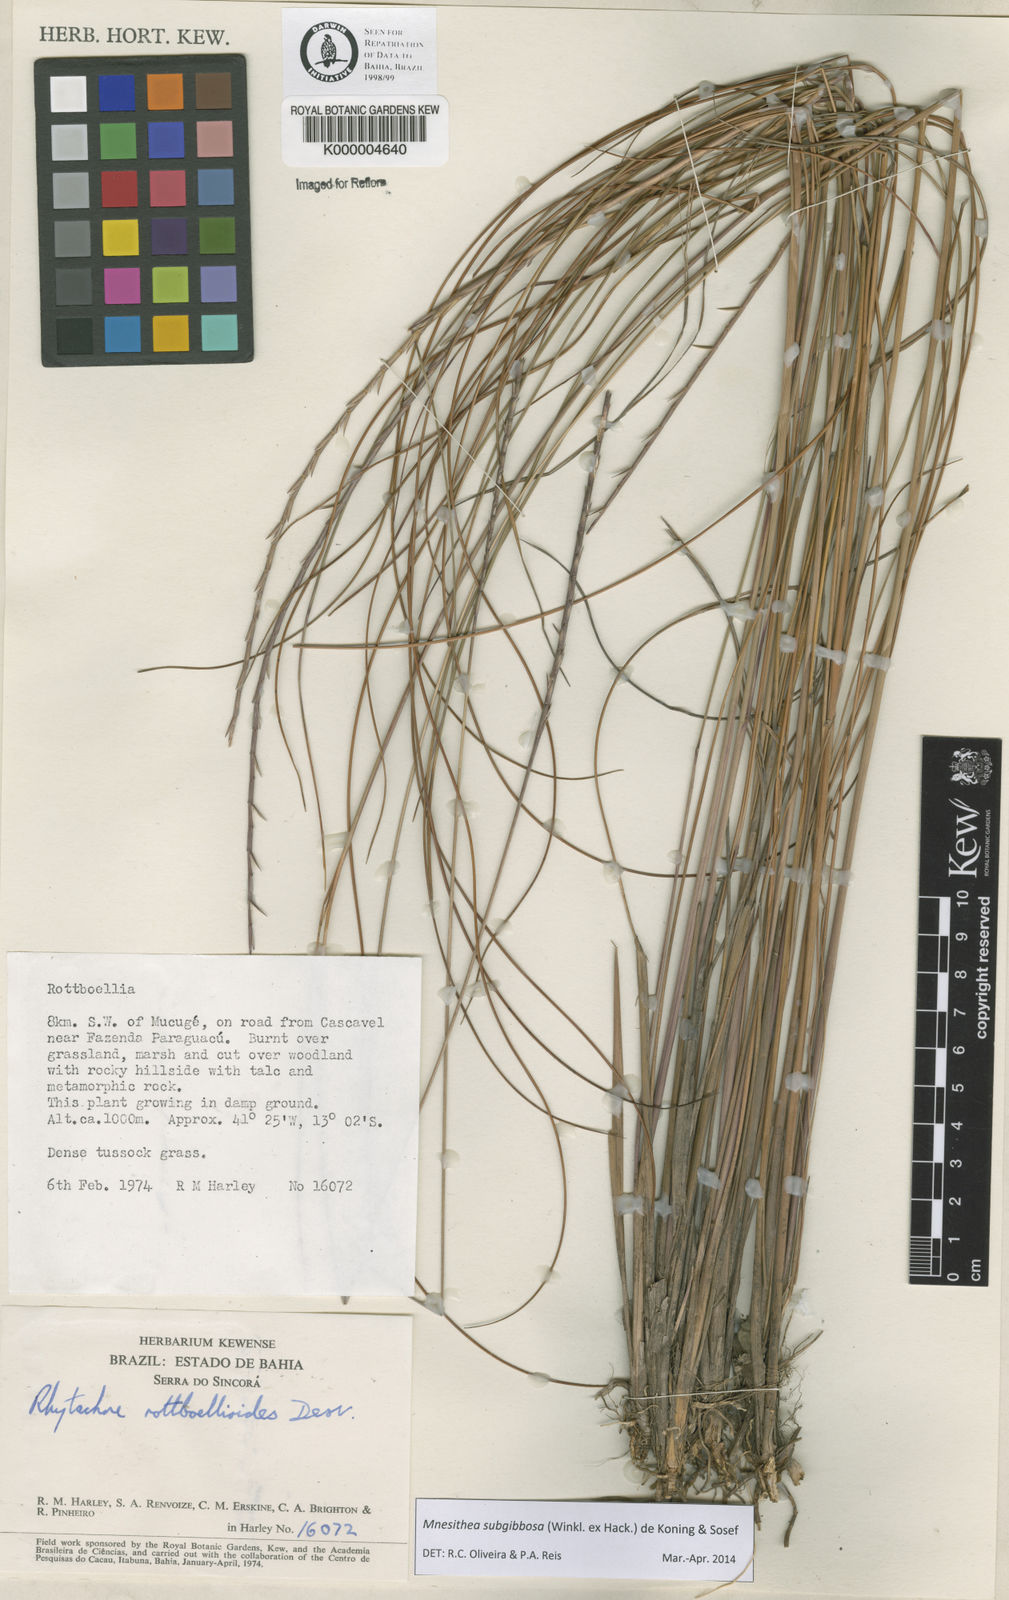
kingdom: Plantae
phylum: Tracheophyta
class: Liliopsida
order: Poales
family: Poaceae
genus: Rhytachne
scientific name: Rhytachne subgibbosa
